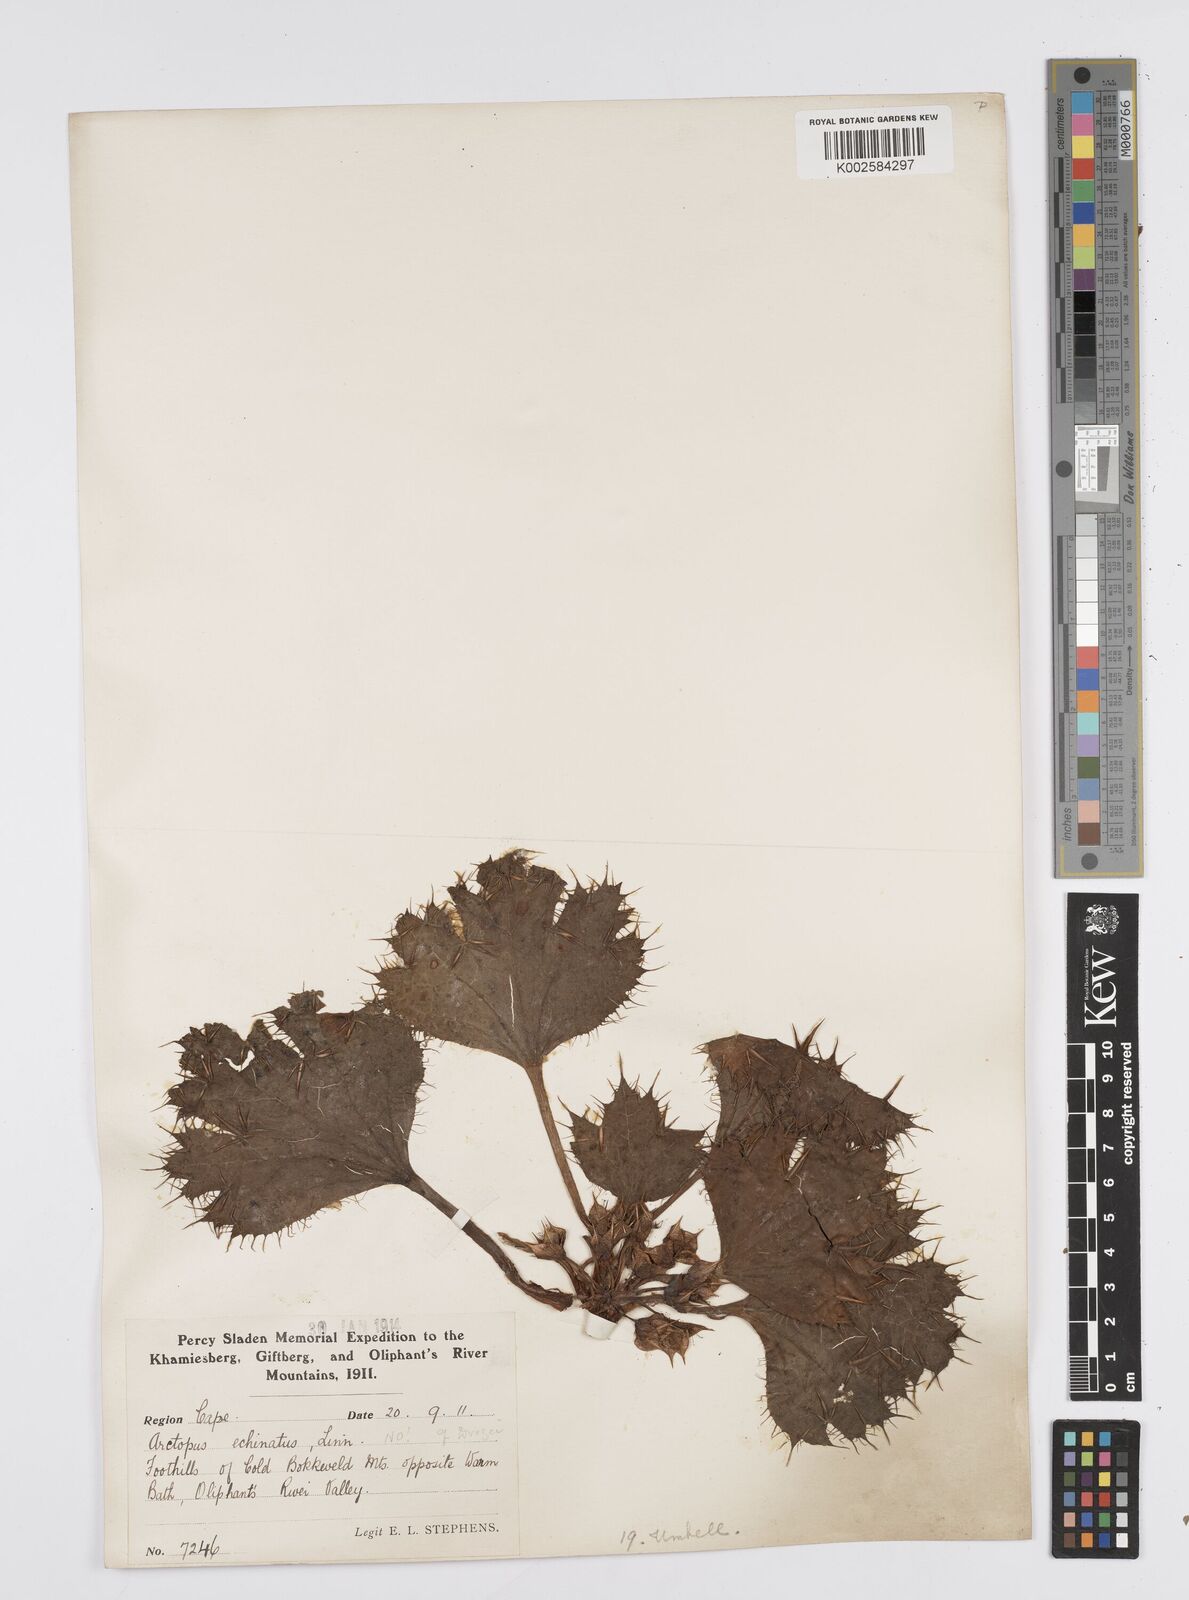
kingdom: Plantae
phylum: Tracheophyta
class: Magnoliopsida
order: Apiales
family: Apiaceae
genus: Arctopus
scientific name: Arctopus echinatus
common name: Platdoring
